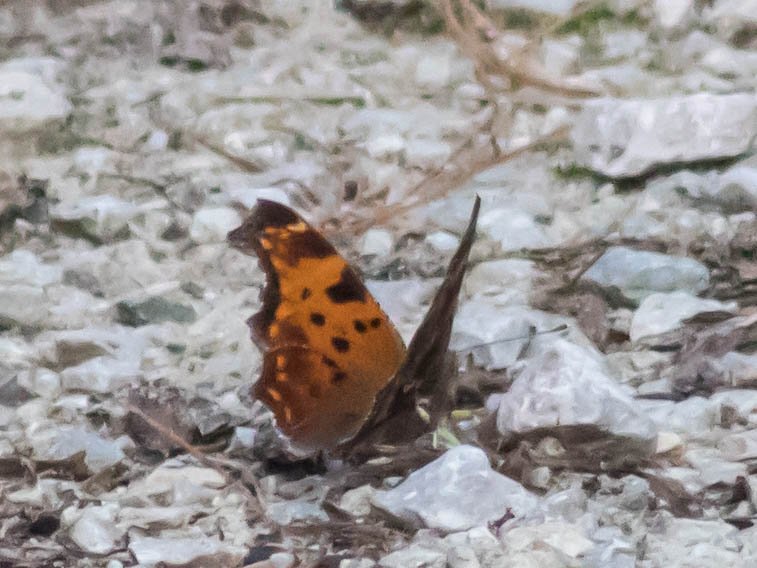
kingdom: Animalia
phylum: Arthropoda
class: Insecta
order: Lepidoptera
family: Nymphalidae
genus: Polygonia
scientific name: Polygonia comma
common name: Eastern Comma
